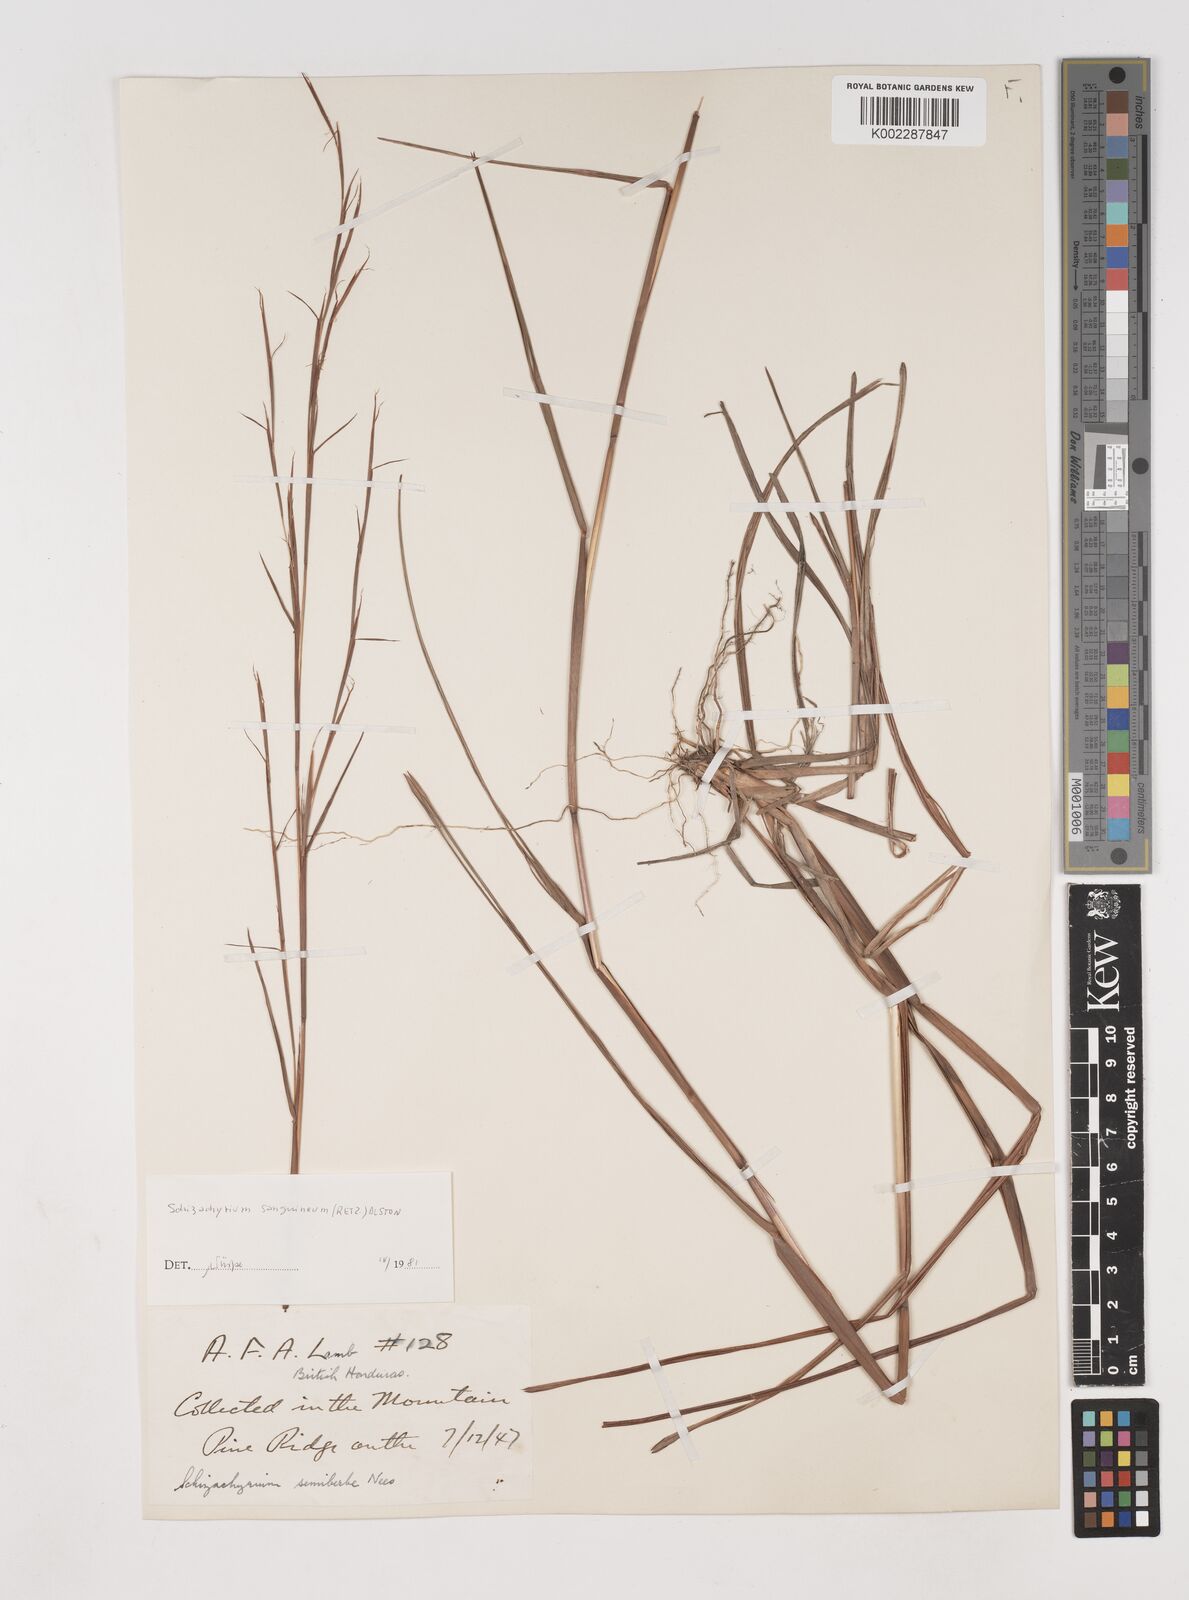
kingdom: Plantae
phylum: Tracheophyta
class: Liliopsida
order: Poales
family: Poaceae
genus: Schizachyrium
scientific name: Schizachyrium sanguineum
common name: Crimson bluestem
